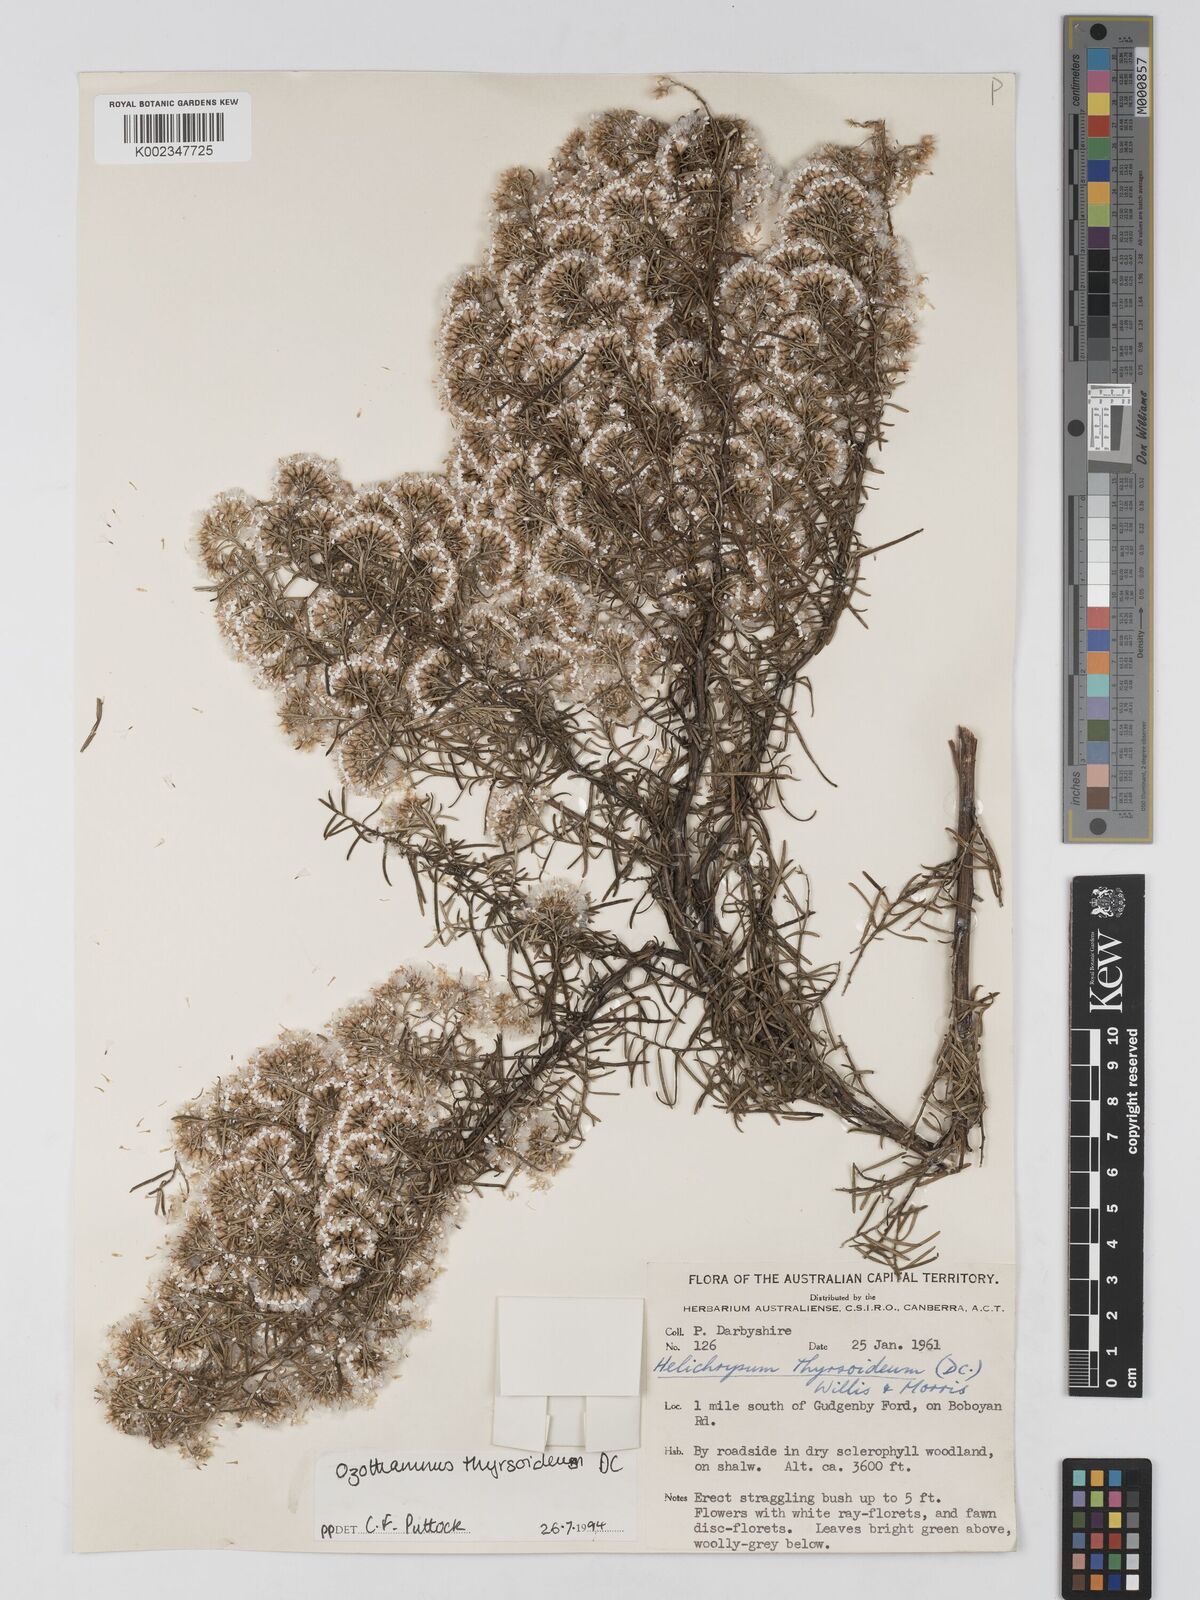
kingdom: Plantae
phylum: Tracheophyta
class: Magnoliopsida
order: Asterales
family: Asteraceae
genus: Ozothamnus
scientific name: Ozothamnus thyrsoideus
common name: Snow-in-summer
